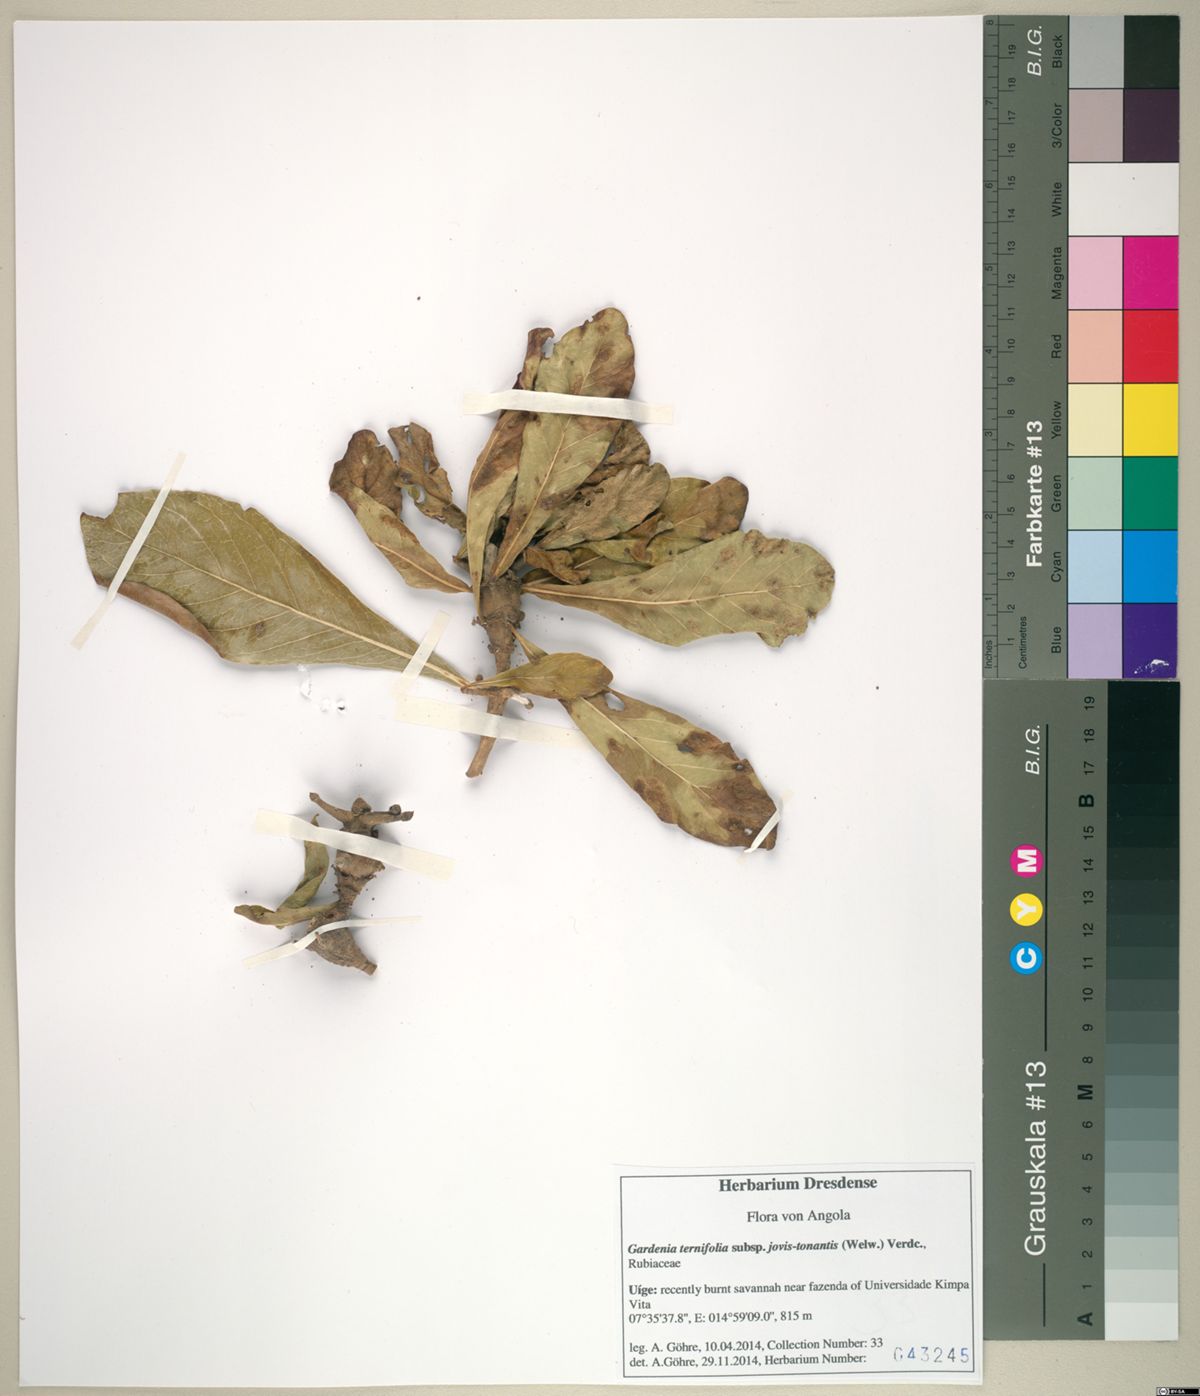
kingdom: Plantae
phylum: Tracheophyta
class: Magnoliopsida
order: Gentianales
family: Rubiaceae
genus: Gardenia
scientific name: Gardenia ternifolia
